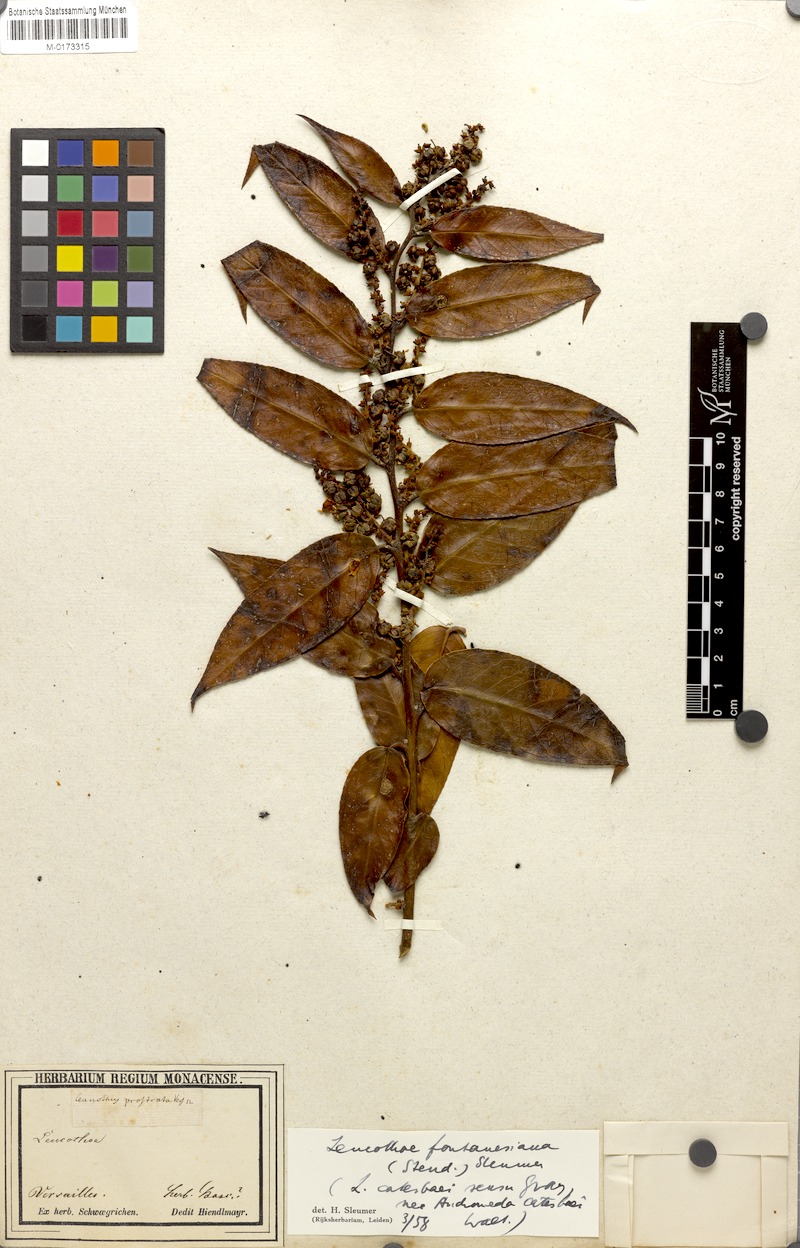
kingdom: Plantae
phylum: Tracheophyta
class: Magnoliopsida
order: Ericales
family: Ericaceae
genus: Leucothoe
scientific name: Leucothoe fontanesiana
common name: Fetterbush
